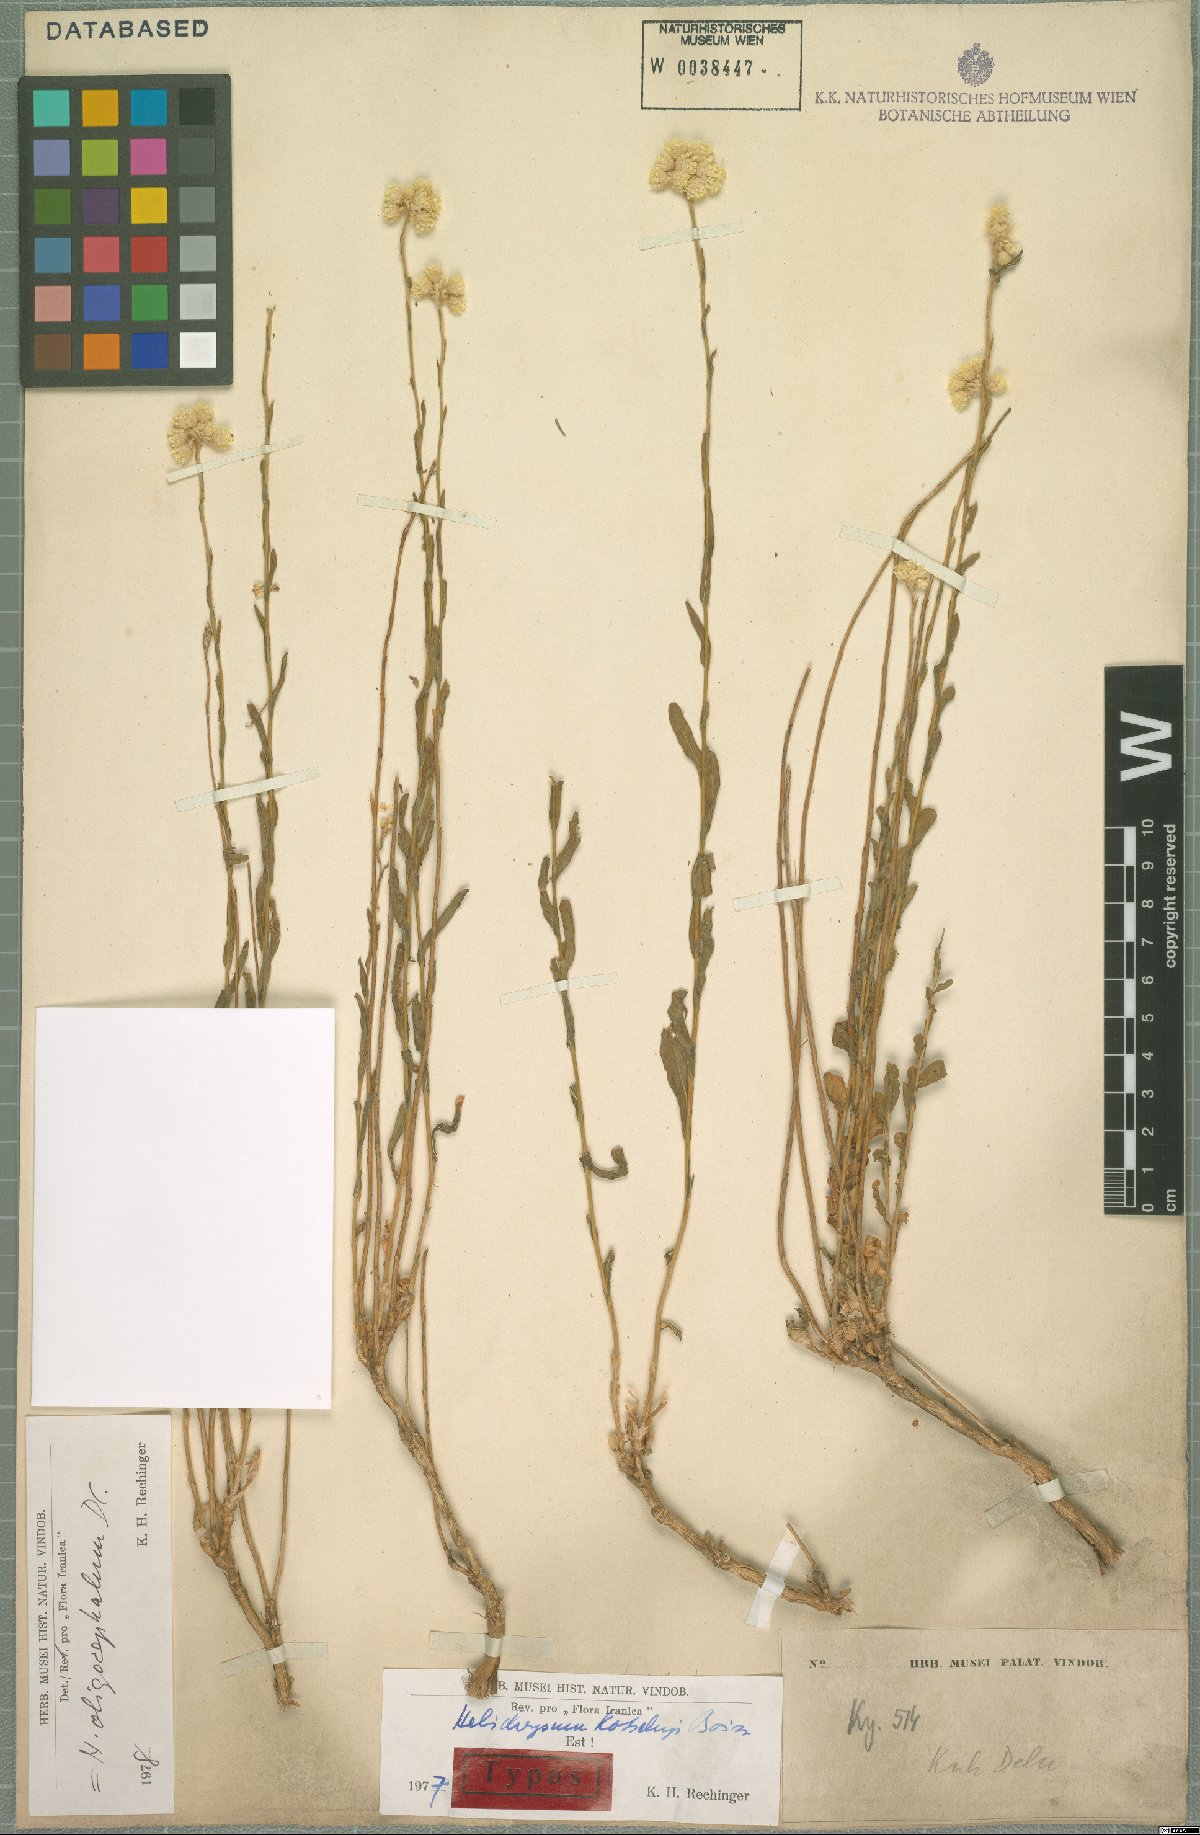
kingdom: Plantae
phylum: Tracheophyta
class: Magnoliopsida
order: Asterales
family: Asteraceae
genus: Helichrysum
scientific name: Helichrysum oligocephalum
